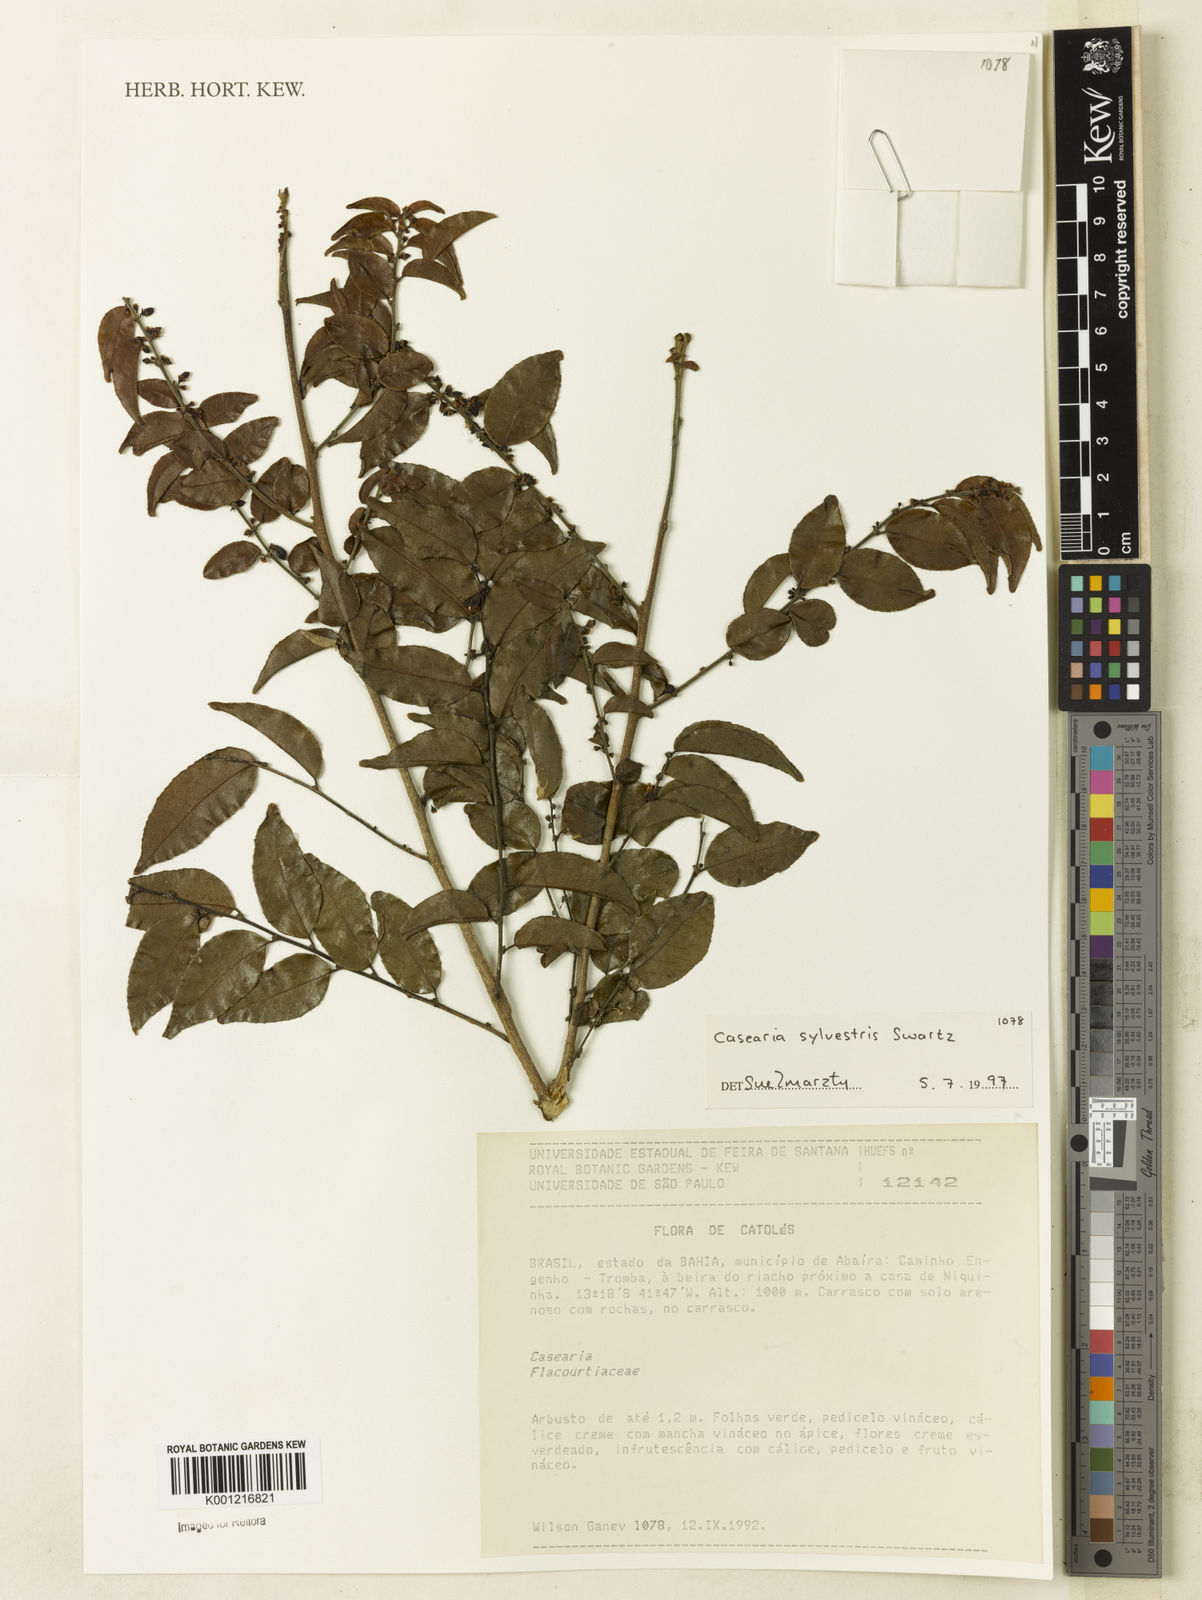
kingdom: Plantae
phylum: Tracheophyta
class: Magnoliopsida
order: Malpighiales
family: Salicaceae
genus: Casearia
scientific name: Casearia sylvestris
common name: Wild sage
